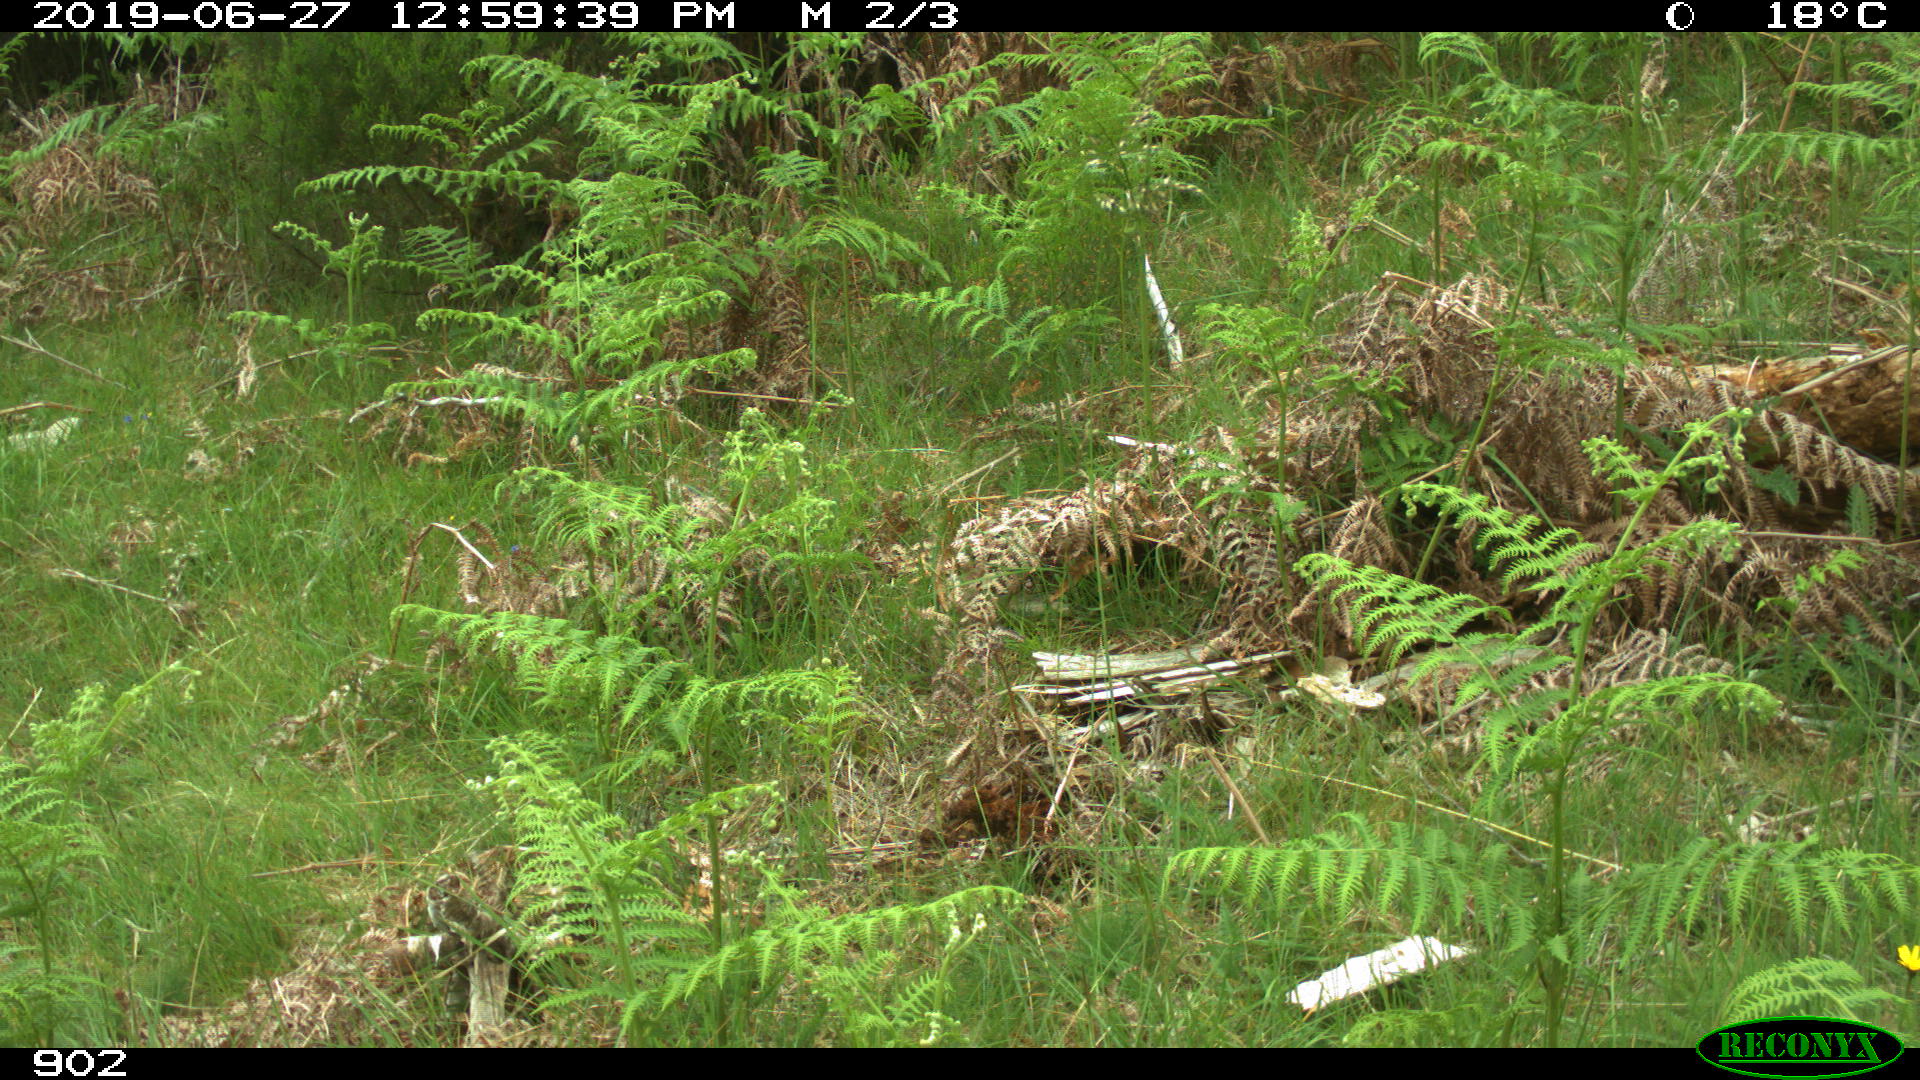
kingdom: Animalia
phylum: Chordata
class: Mammalia
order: Artiodactyla
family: Suidae
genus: Sus
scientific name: Sus scrofa
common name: Wild boar
